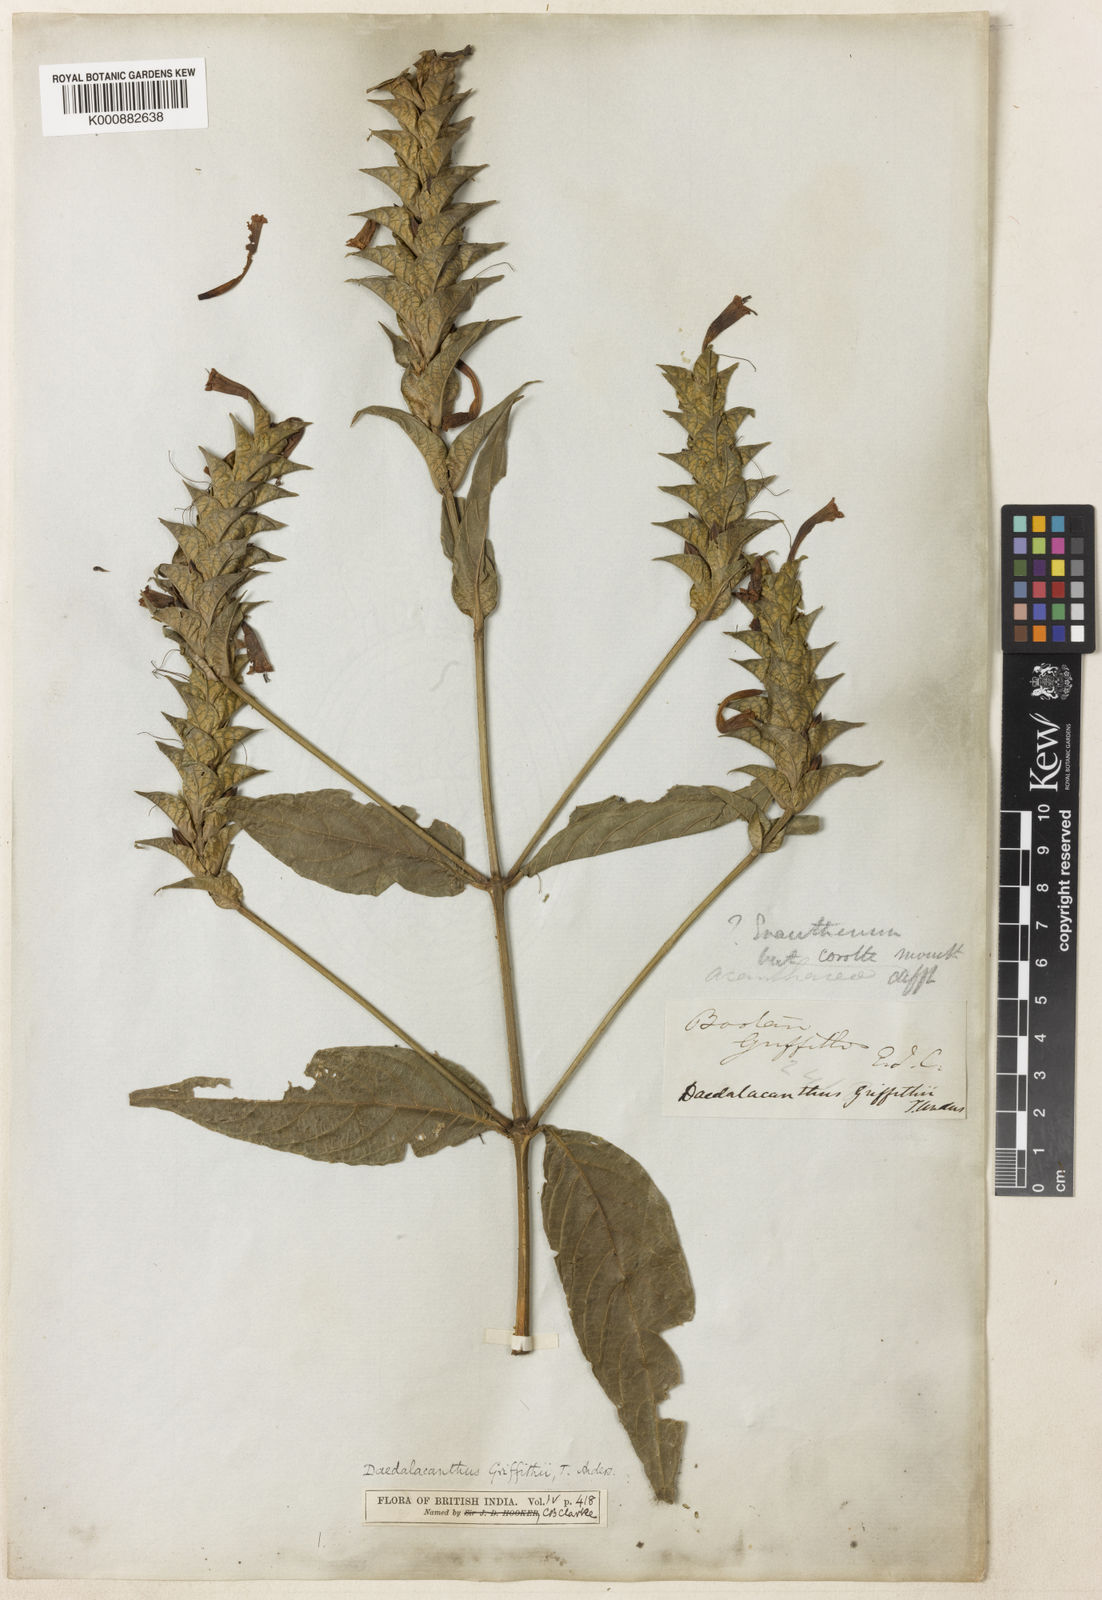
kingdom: Plantae
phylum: Tracheophyta
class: Magnoliopsida
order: Lamiales
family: Acanthaceae
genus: Eranthemum
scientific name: Eranthemum griffithii
